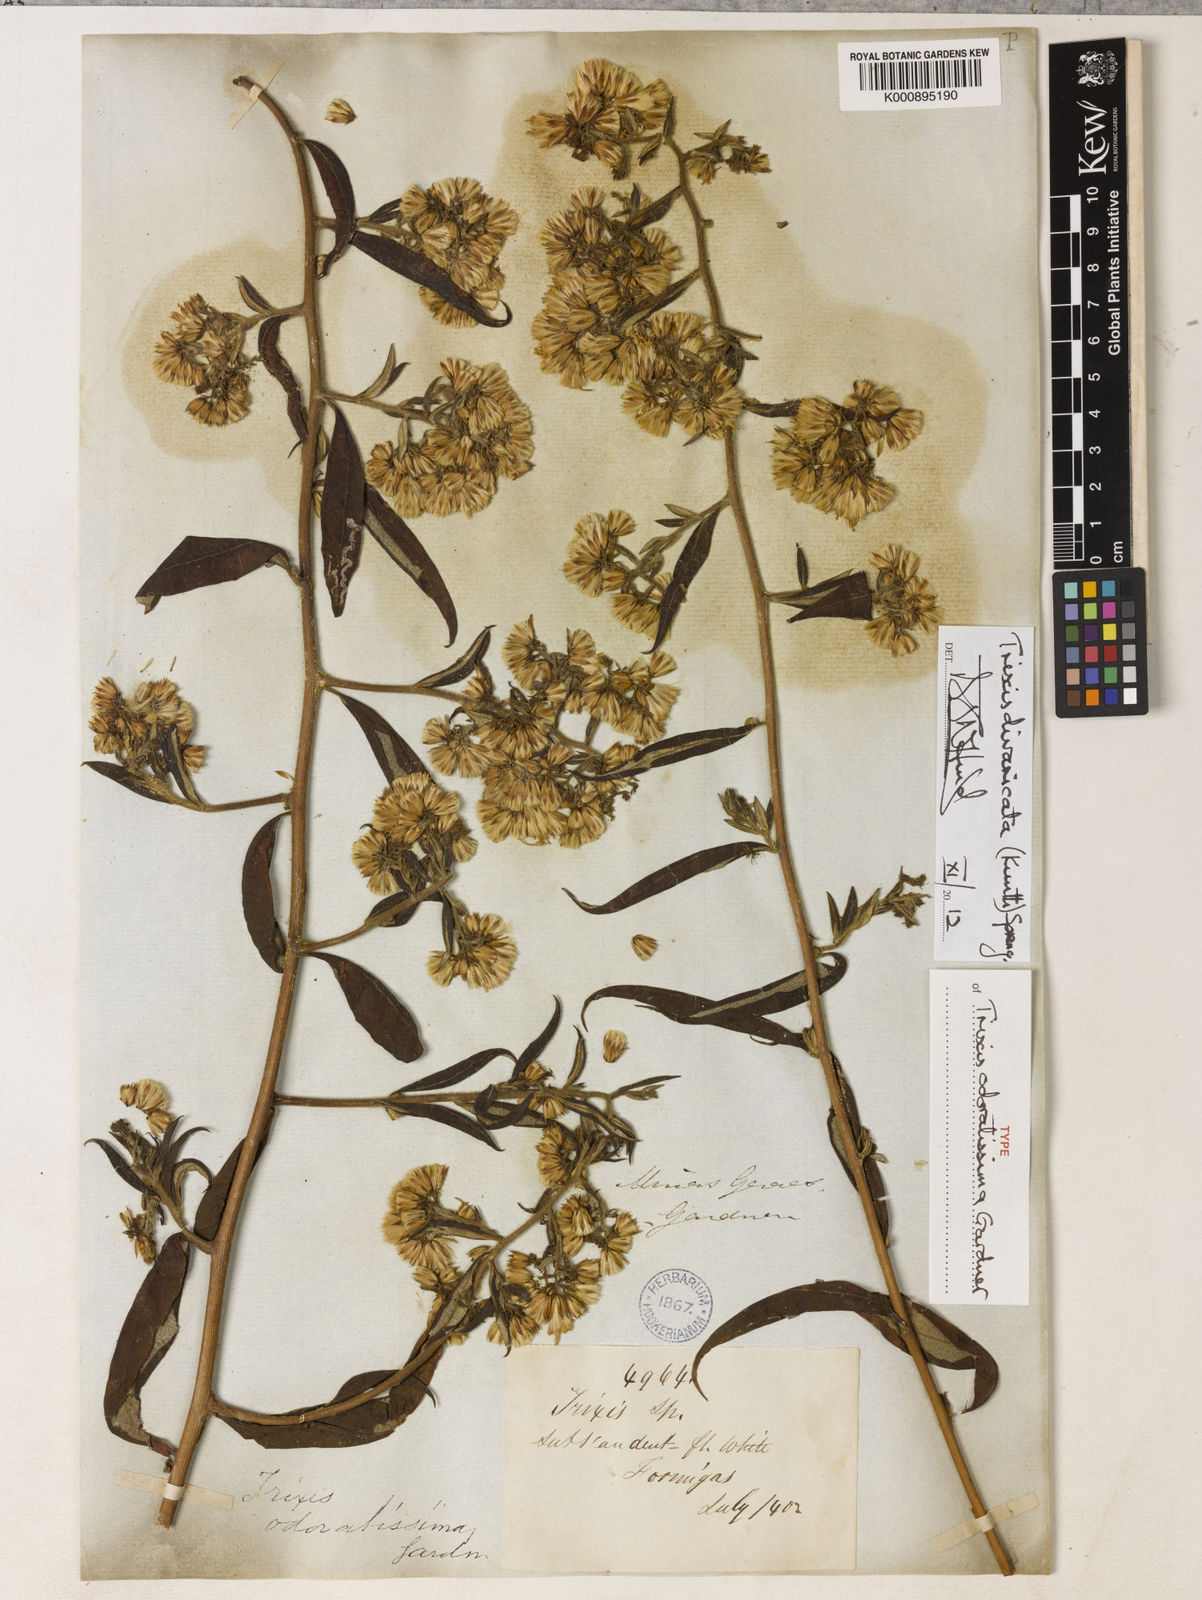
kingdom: Plantae
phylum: Tracheophyta
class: Magnoliopsida
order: Asterales
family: Asteraceae
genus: Trixis
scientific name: Trixis divaricata
